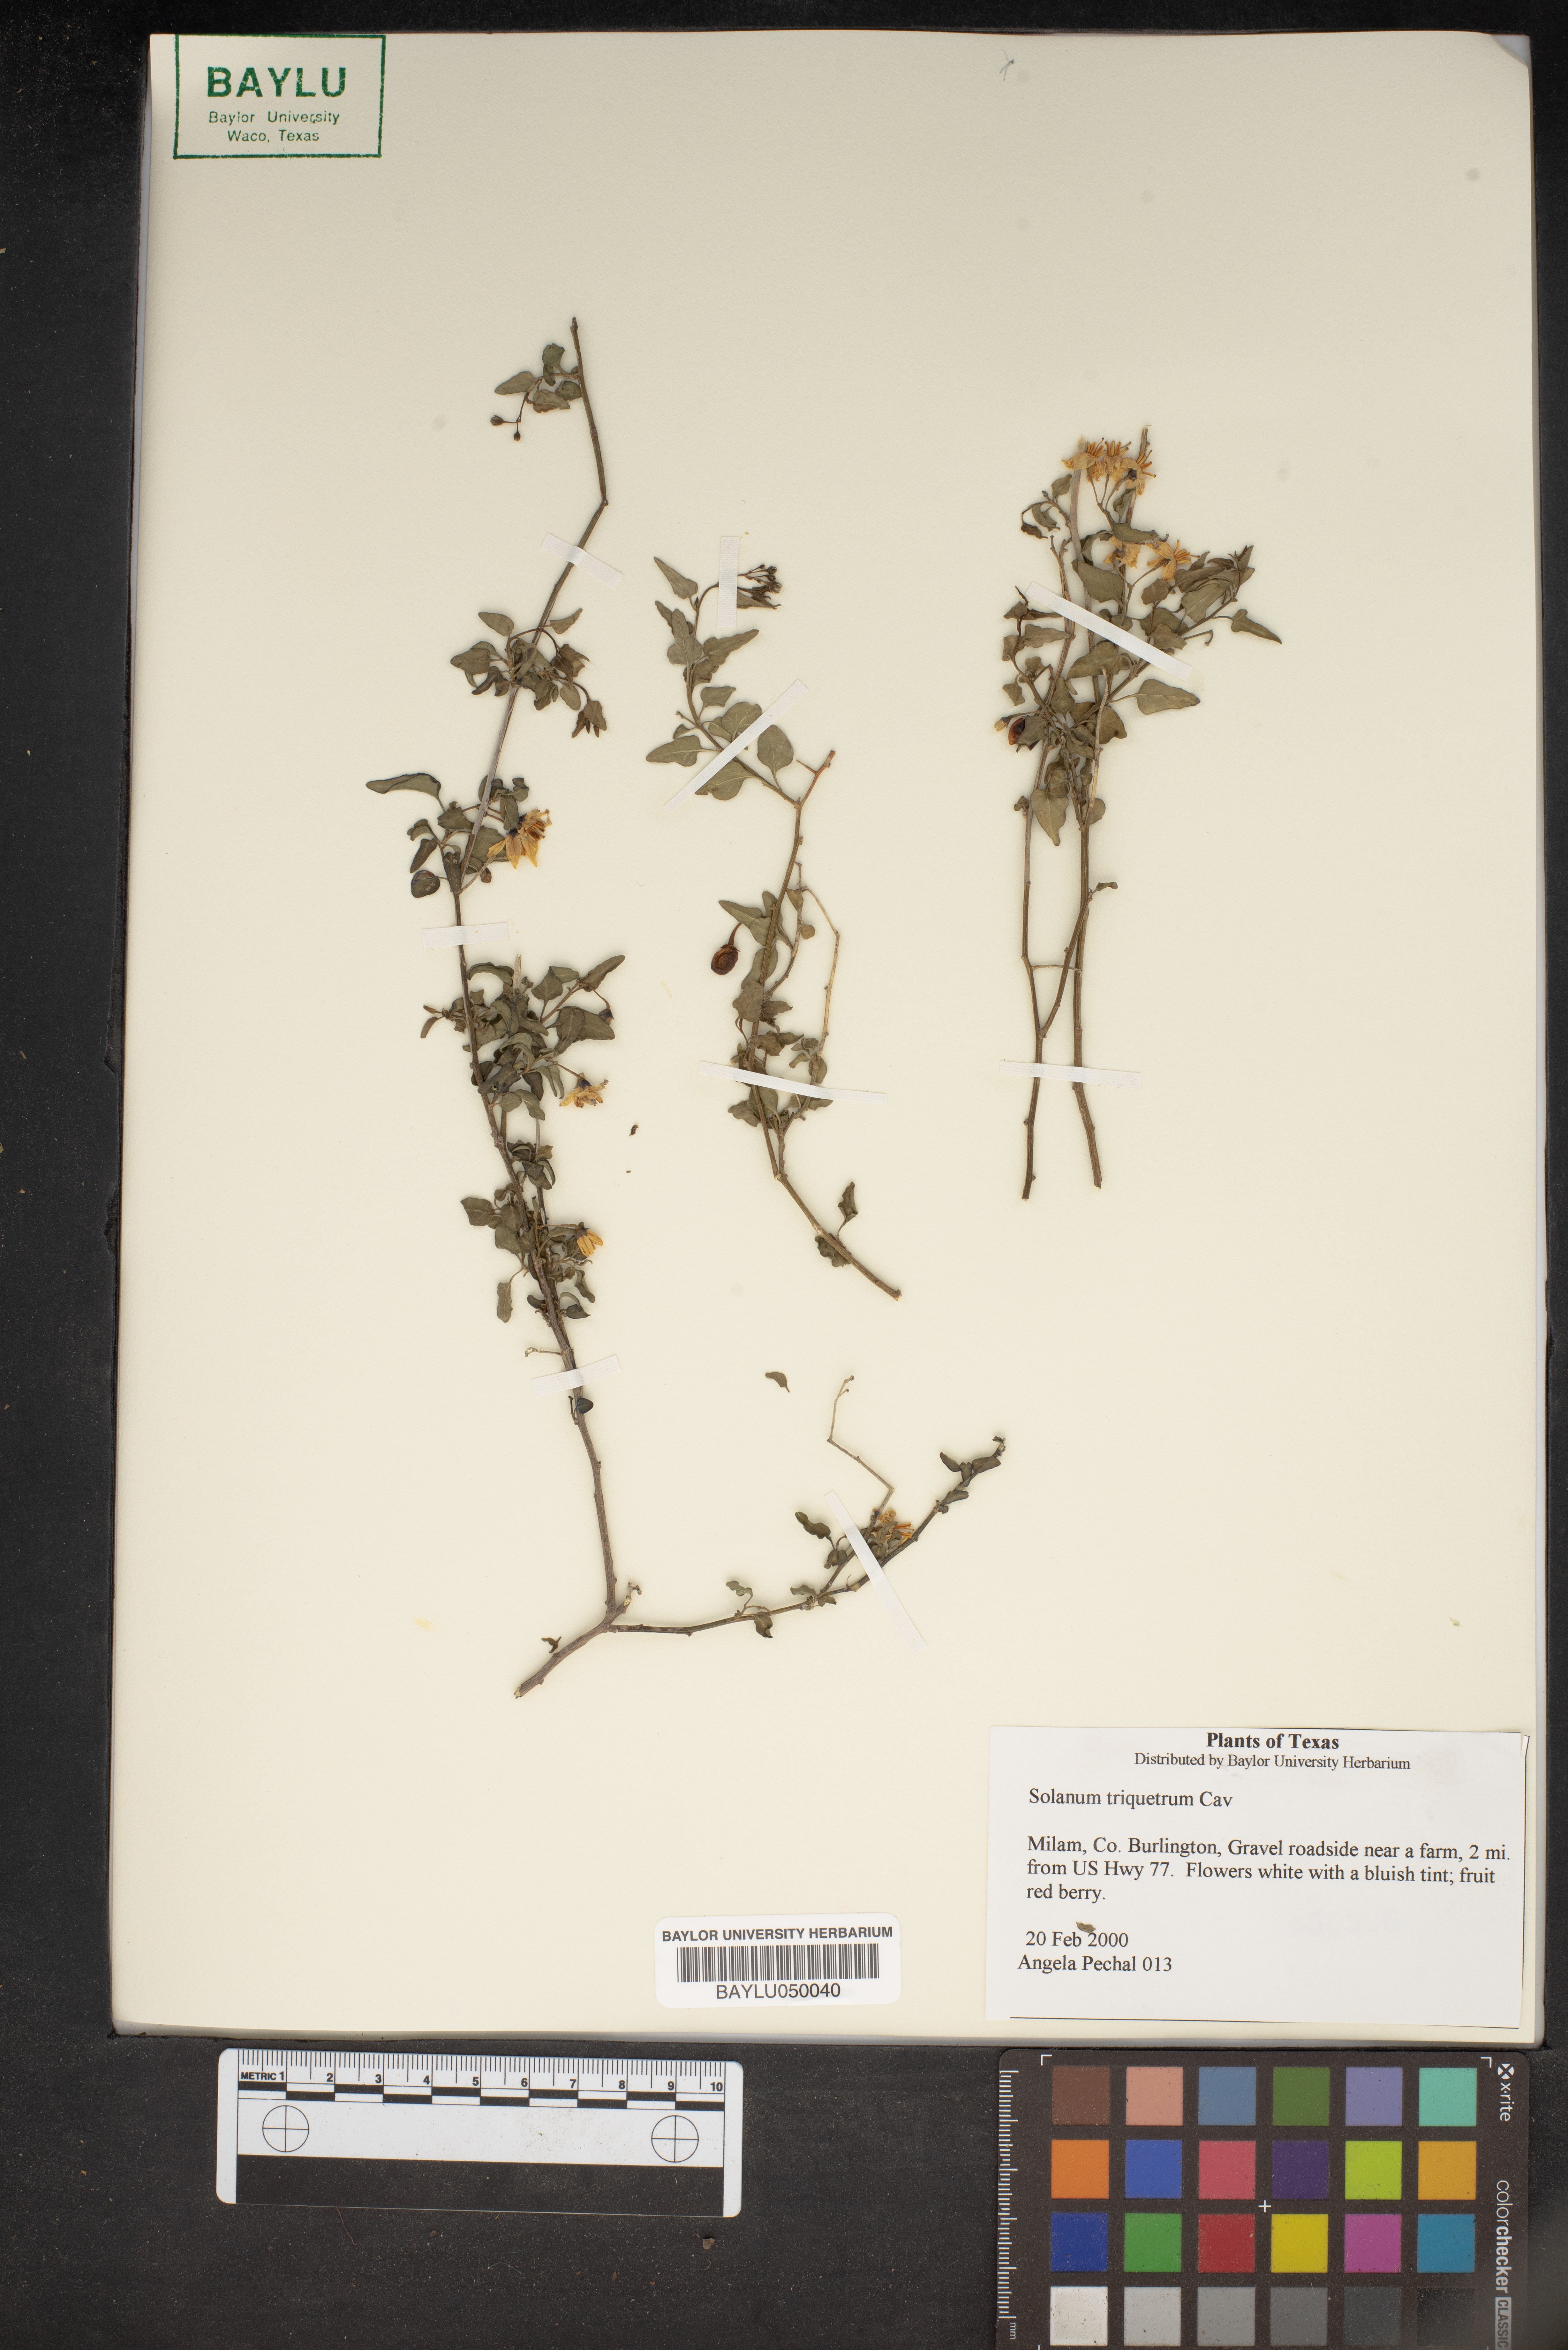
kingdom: Plantae
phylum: Tracheophyta
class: Magnoliopsida
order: Solanales
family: Solanaceae
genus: Solanum
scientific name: Solanum triquetrum
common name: Texas nightshade
